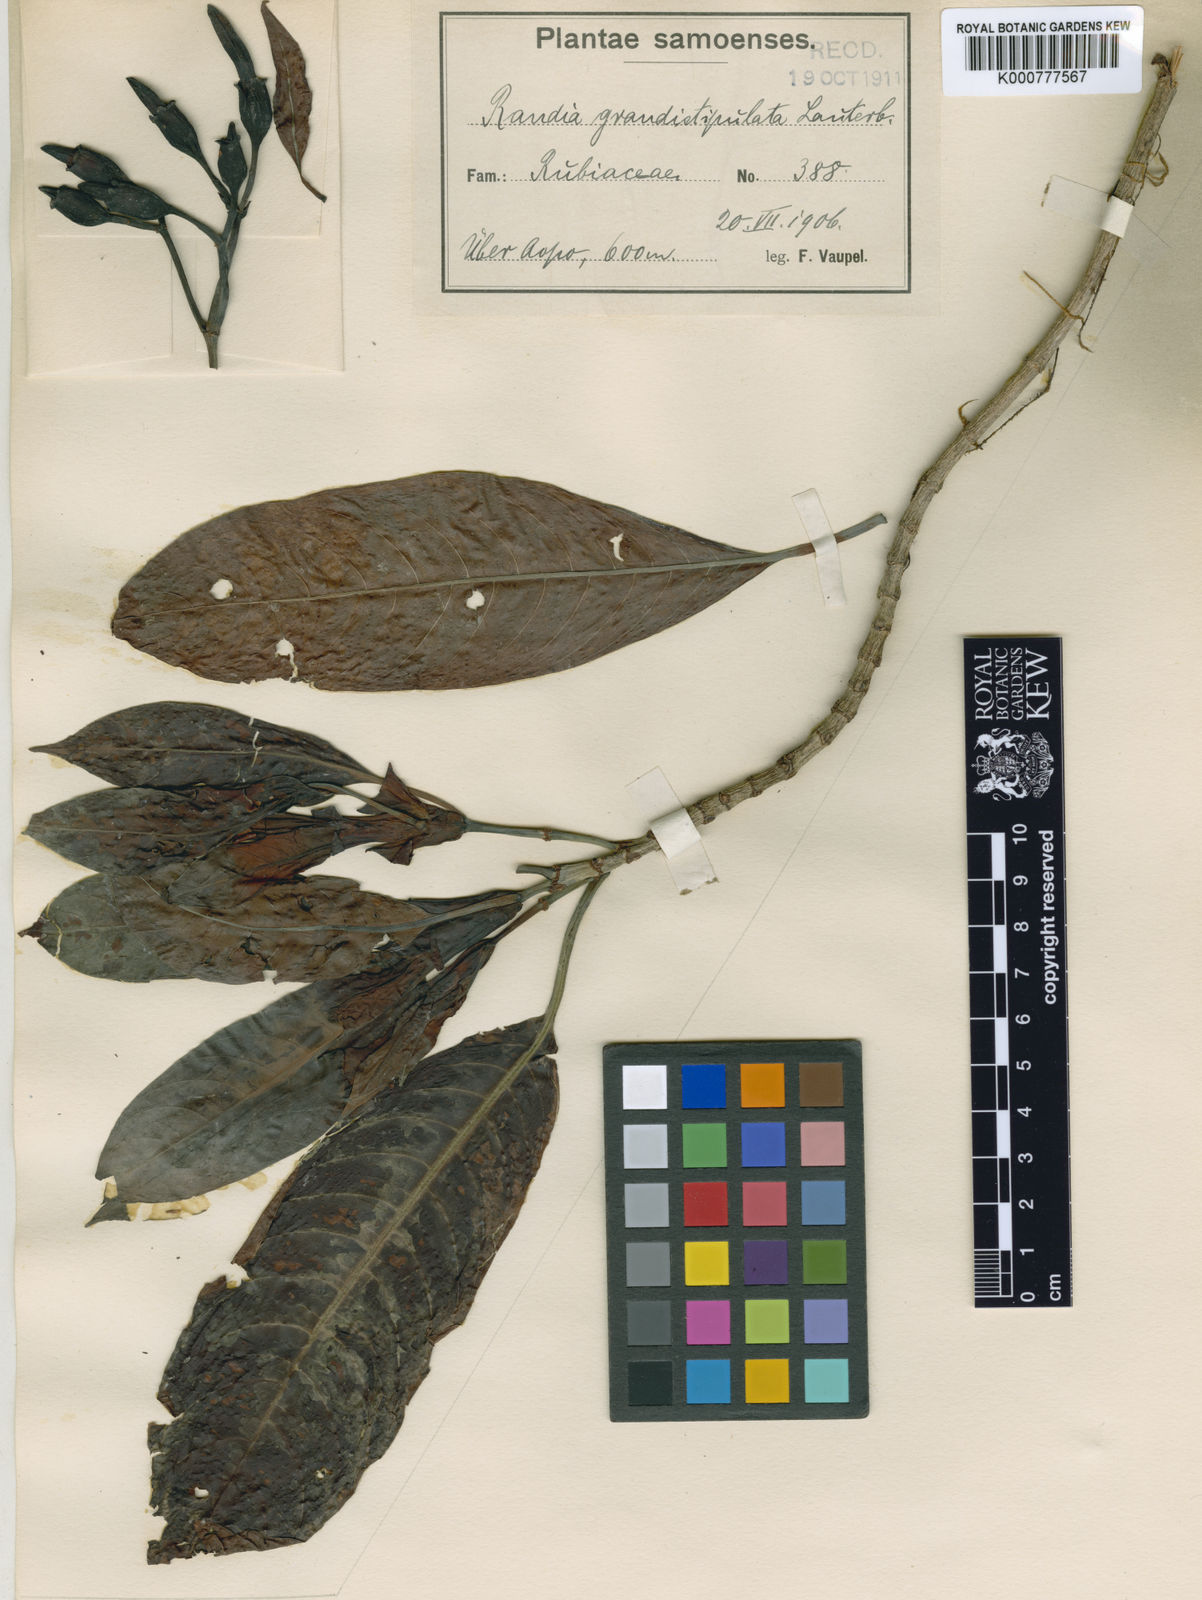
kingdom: Plantae
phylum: Tracheophyta
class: Magnoliopsida
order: Gentianales
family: Rubiaceae
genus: Psychotria
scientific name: Psychotria grandistipulata
